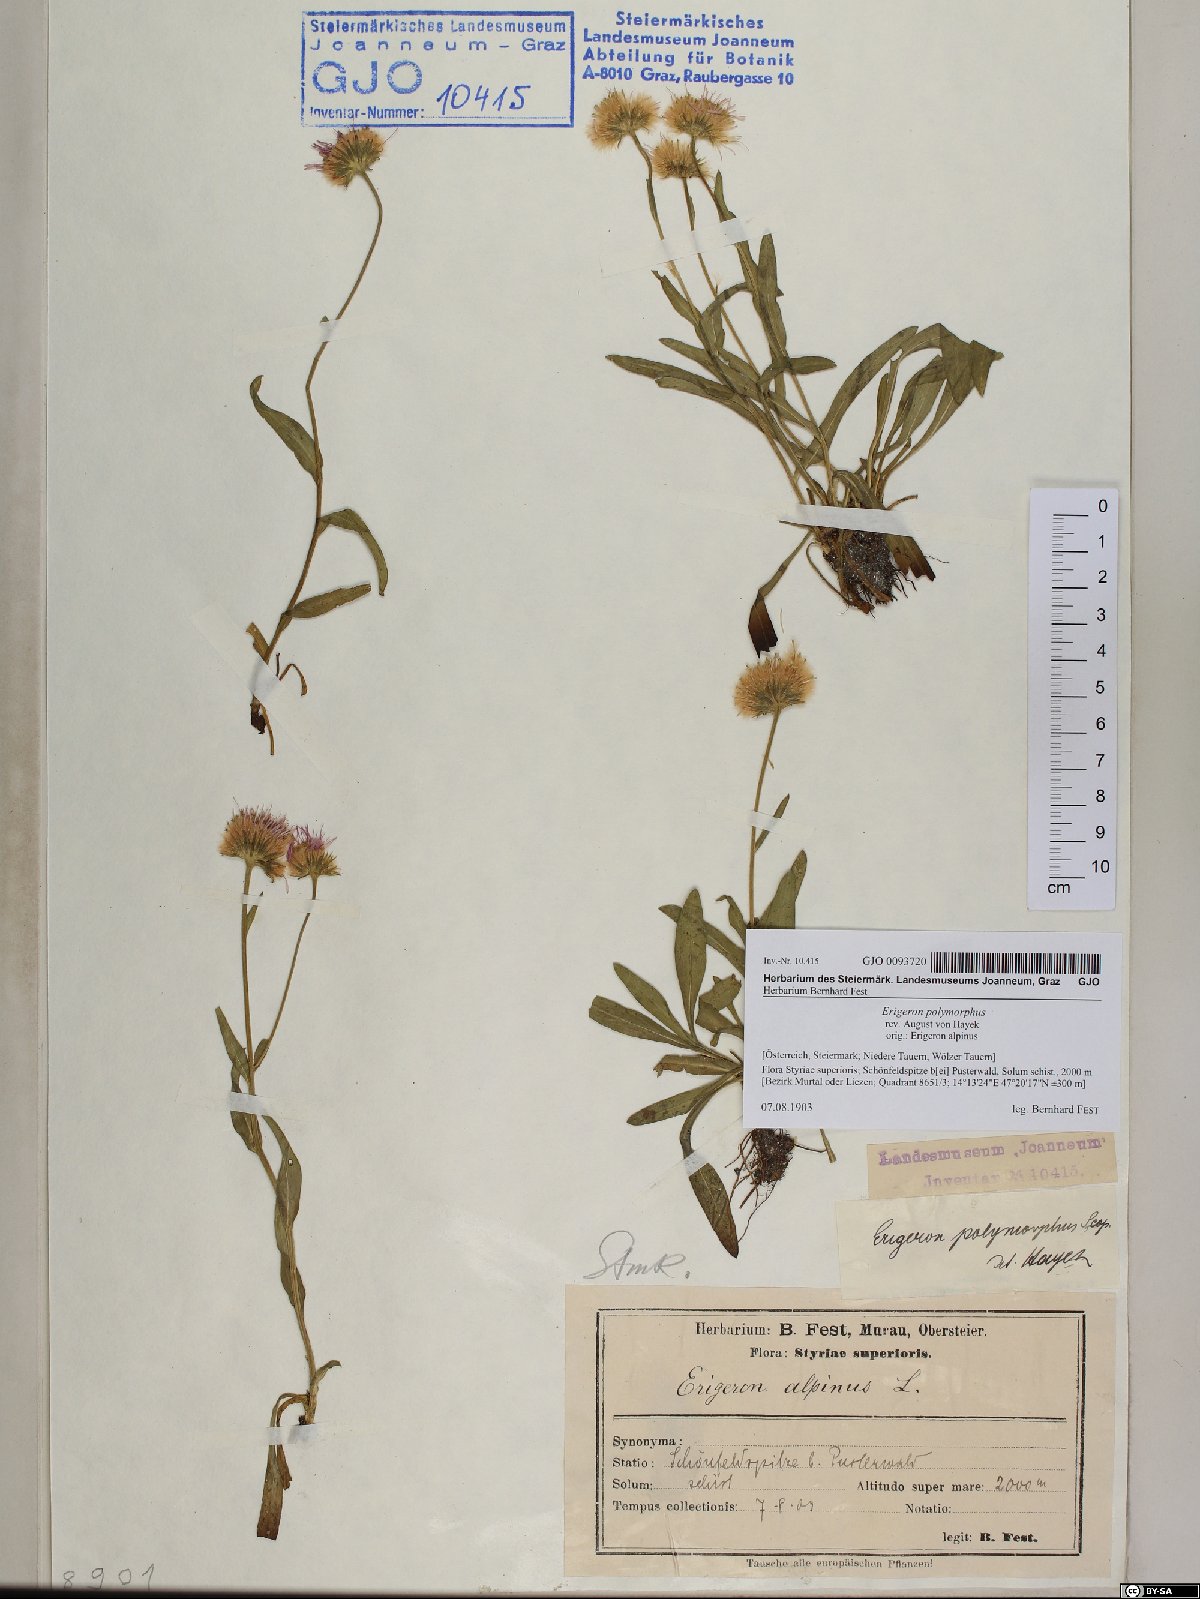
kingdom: Plantae
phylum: Tracheophyta
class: Magnoliopsida
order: Asterales
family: Asteraceae
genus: Erigeron
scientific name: Erigeron alpinus
